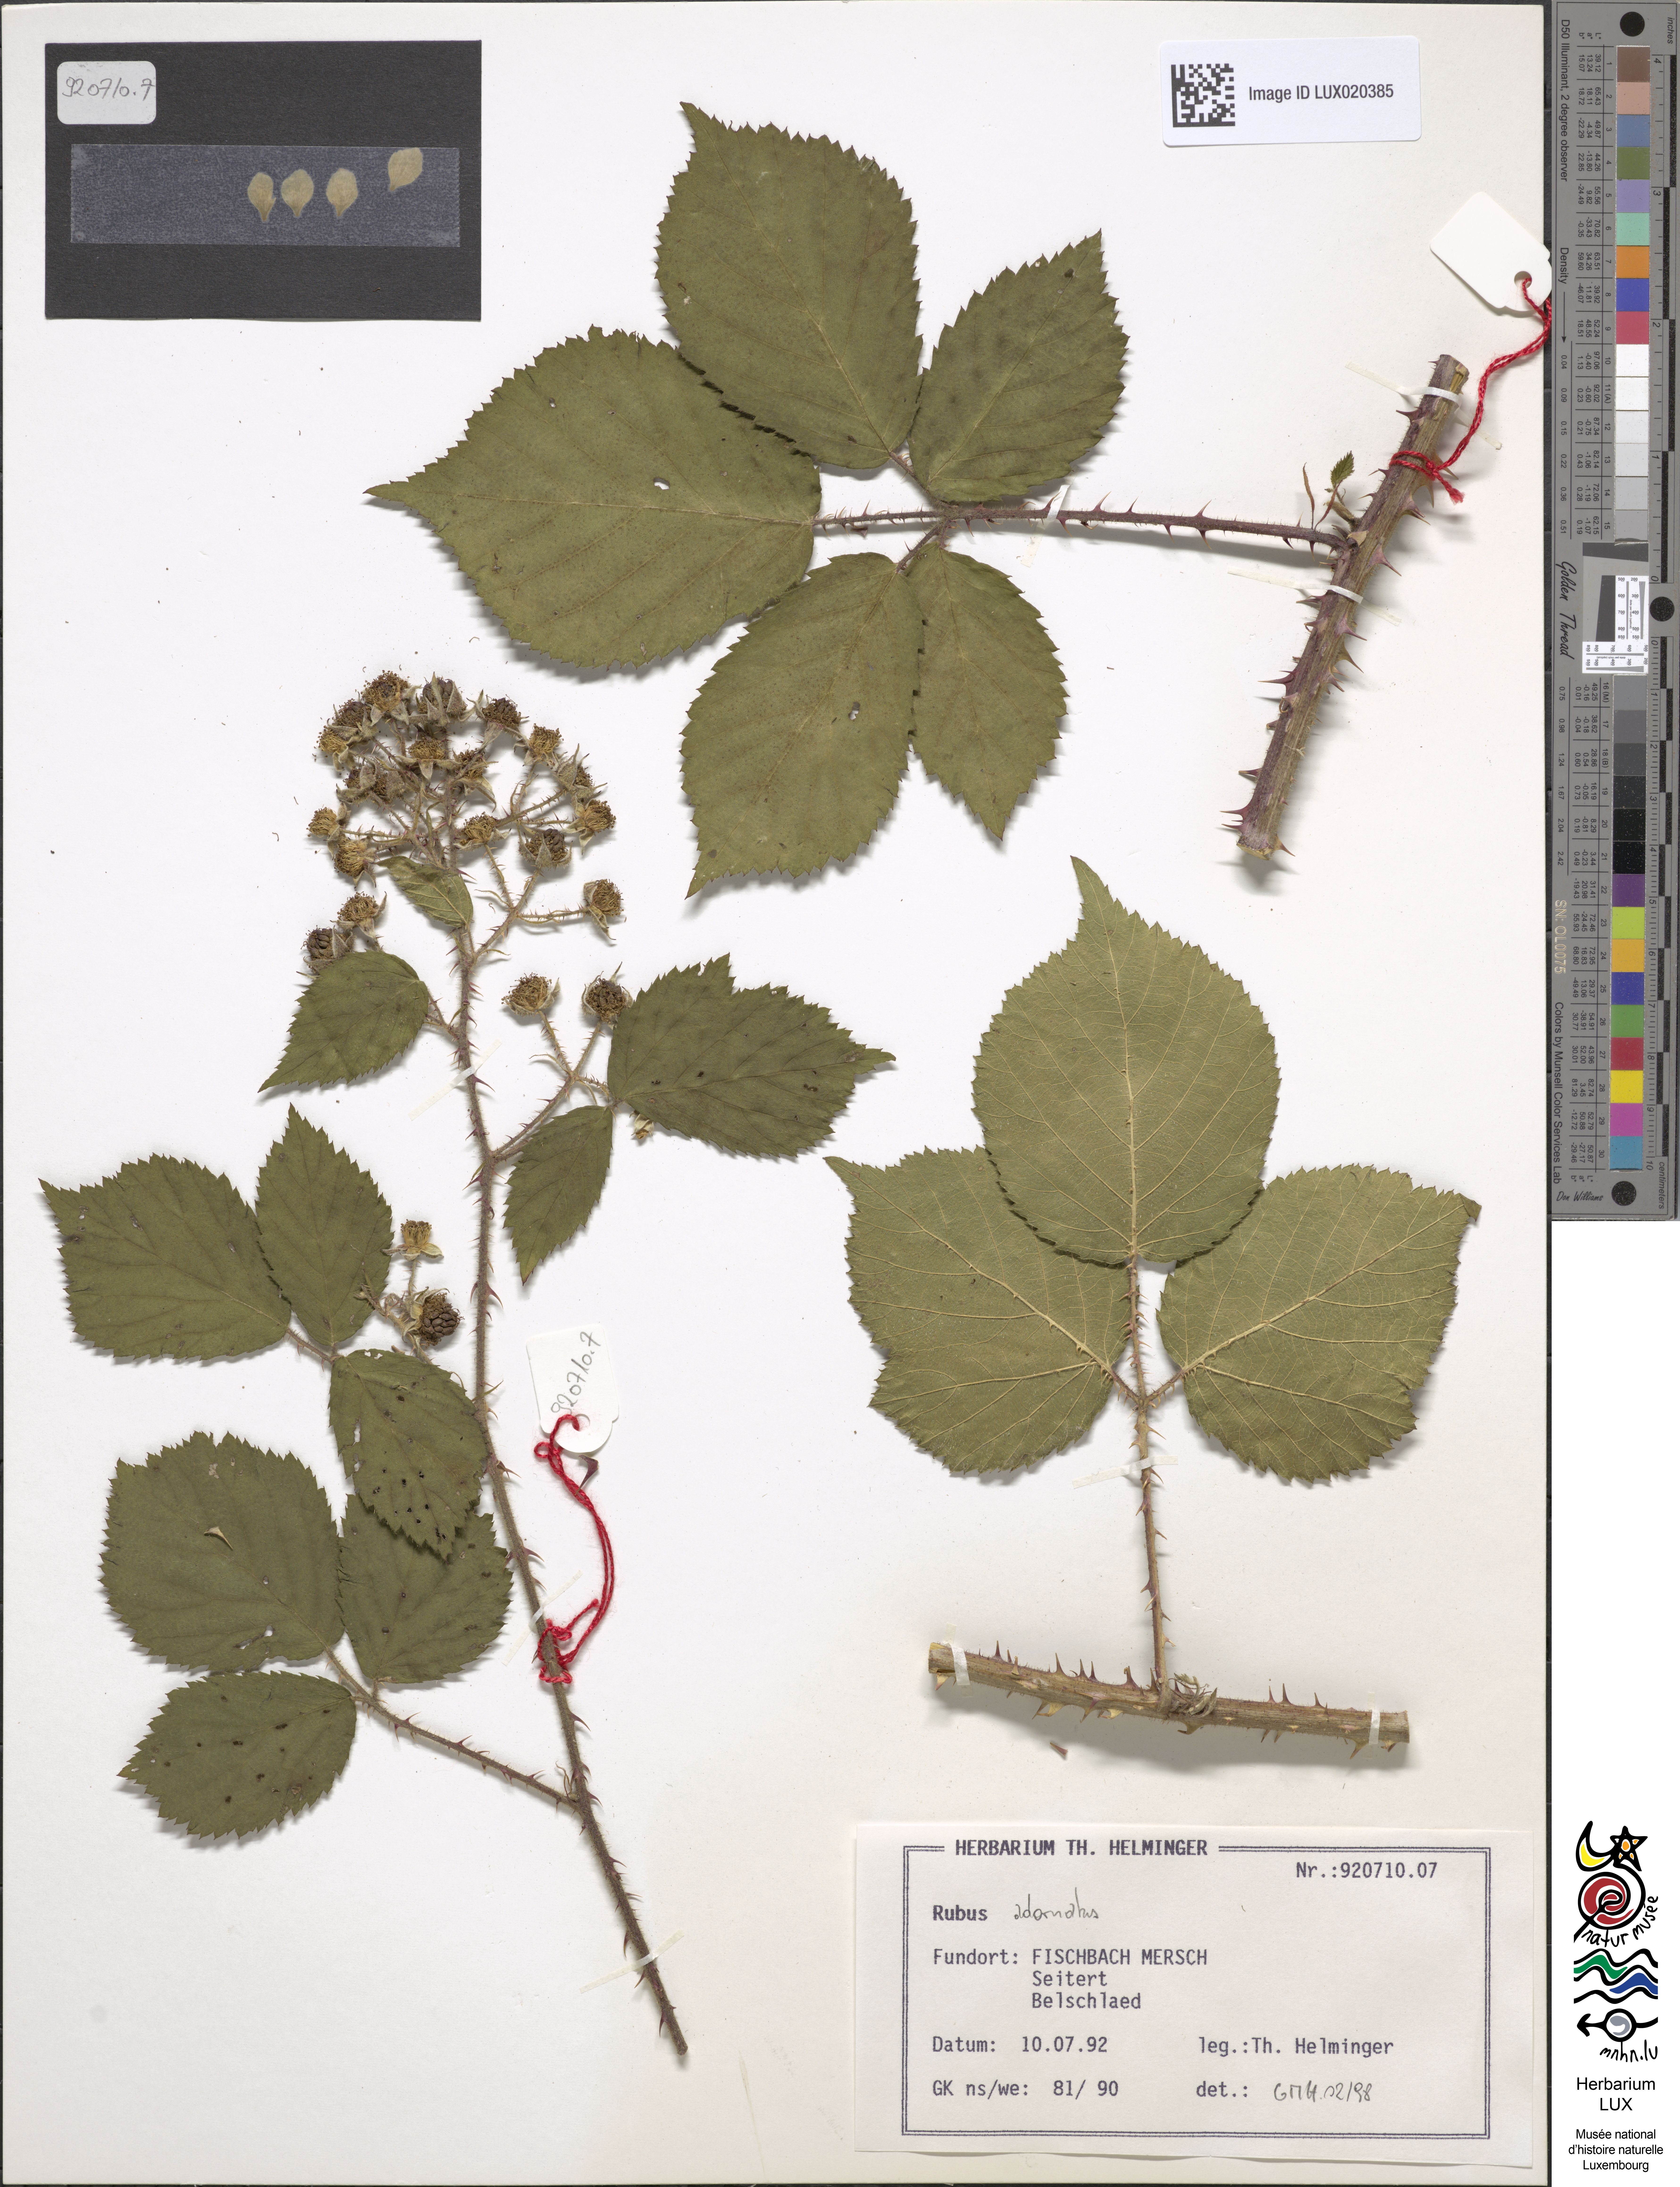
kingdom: Plantae
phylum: Tracheophyta
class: Magnoliopsida
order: Rosales
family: Rosaceae
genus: Rubus
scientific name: Rubus
